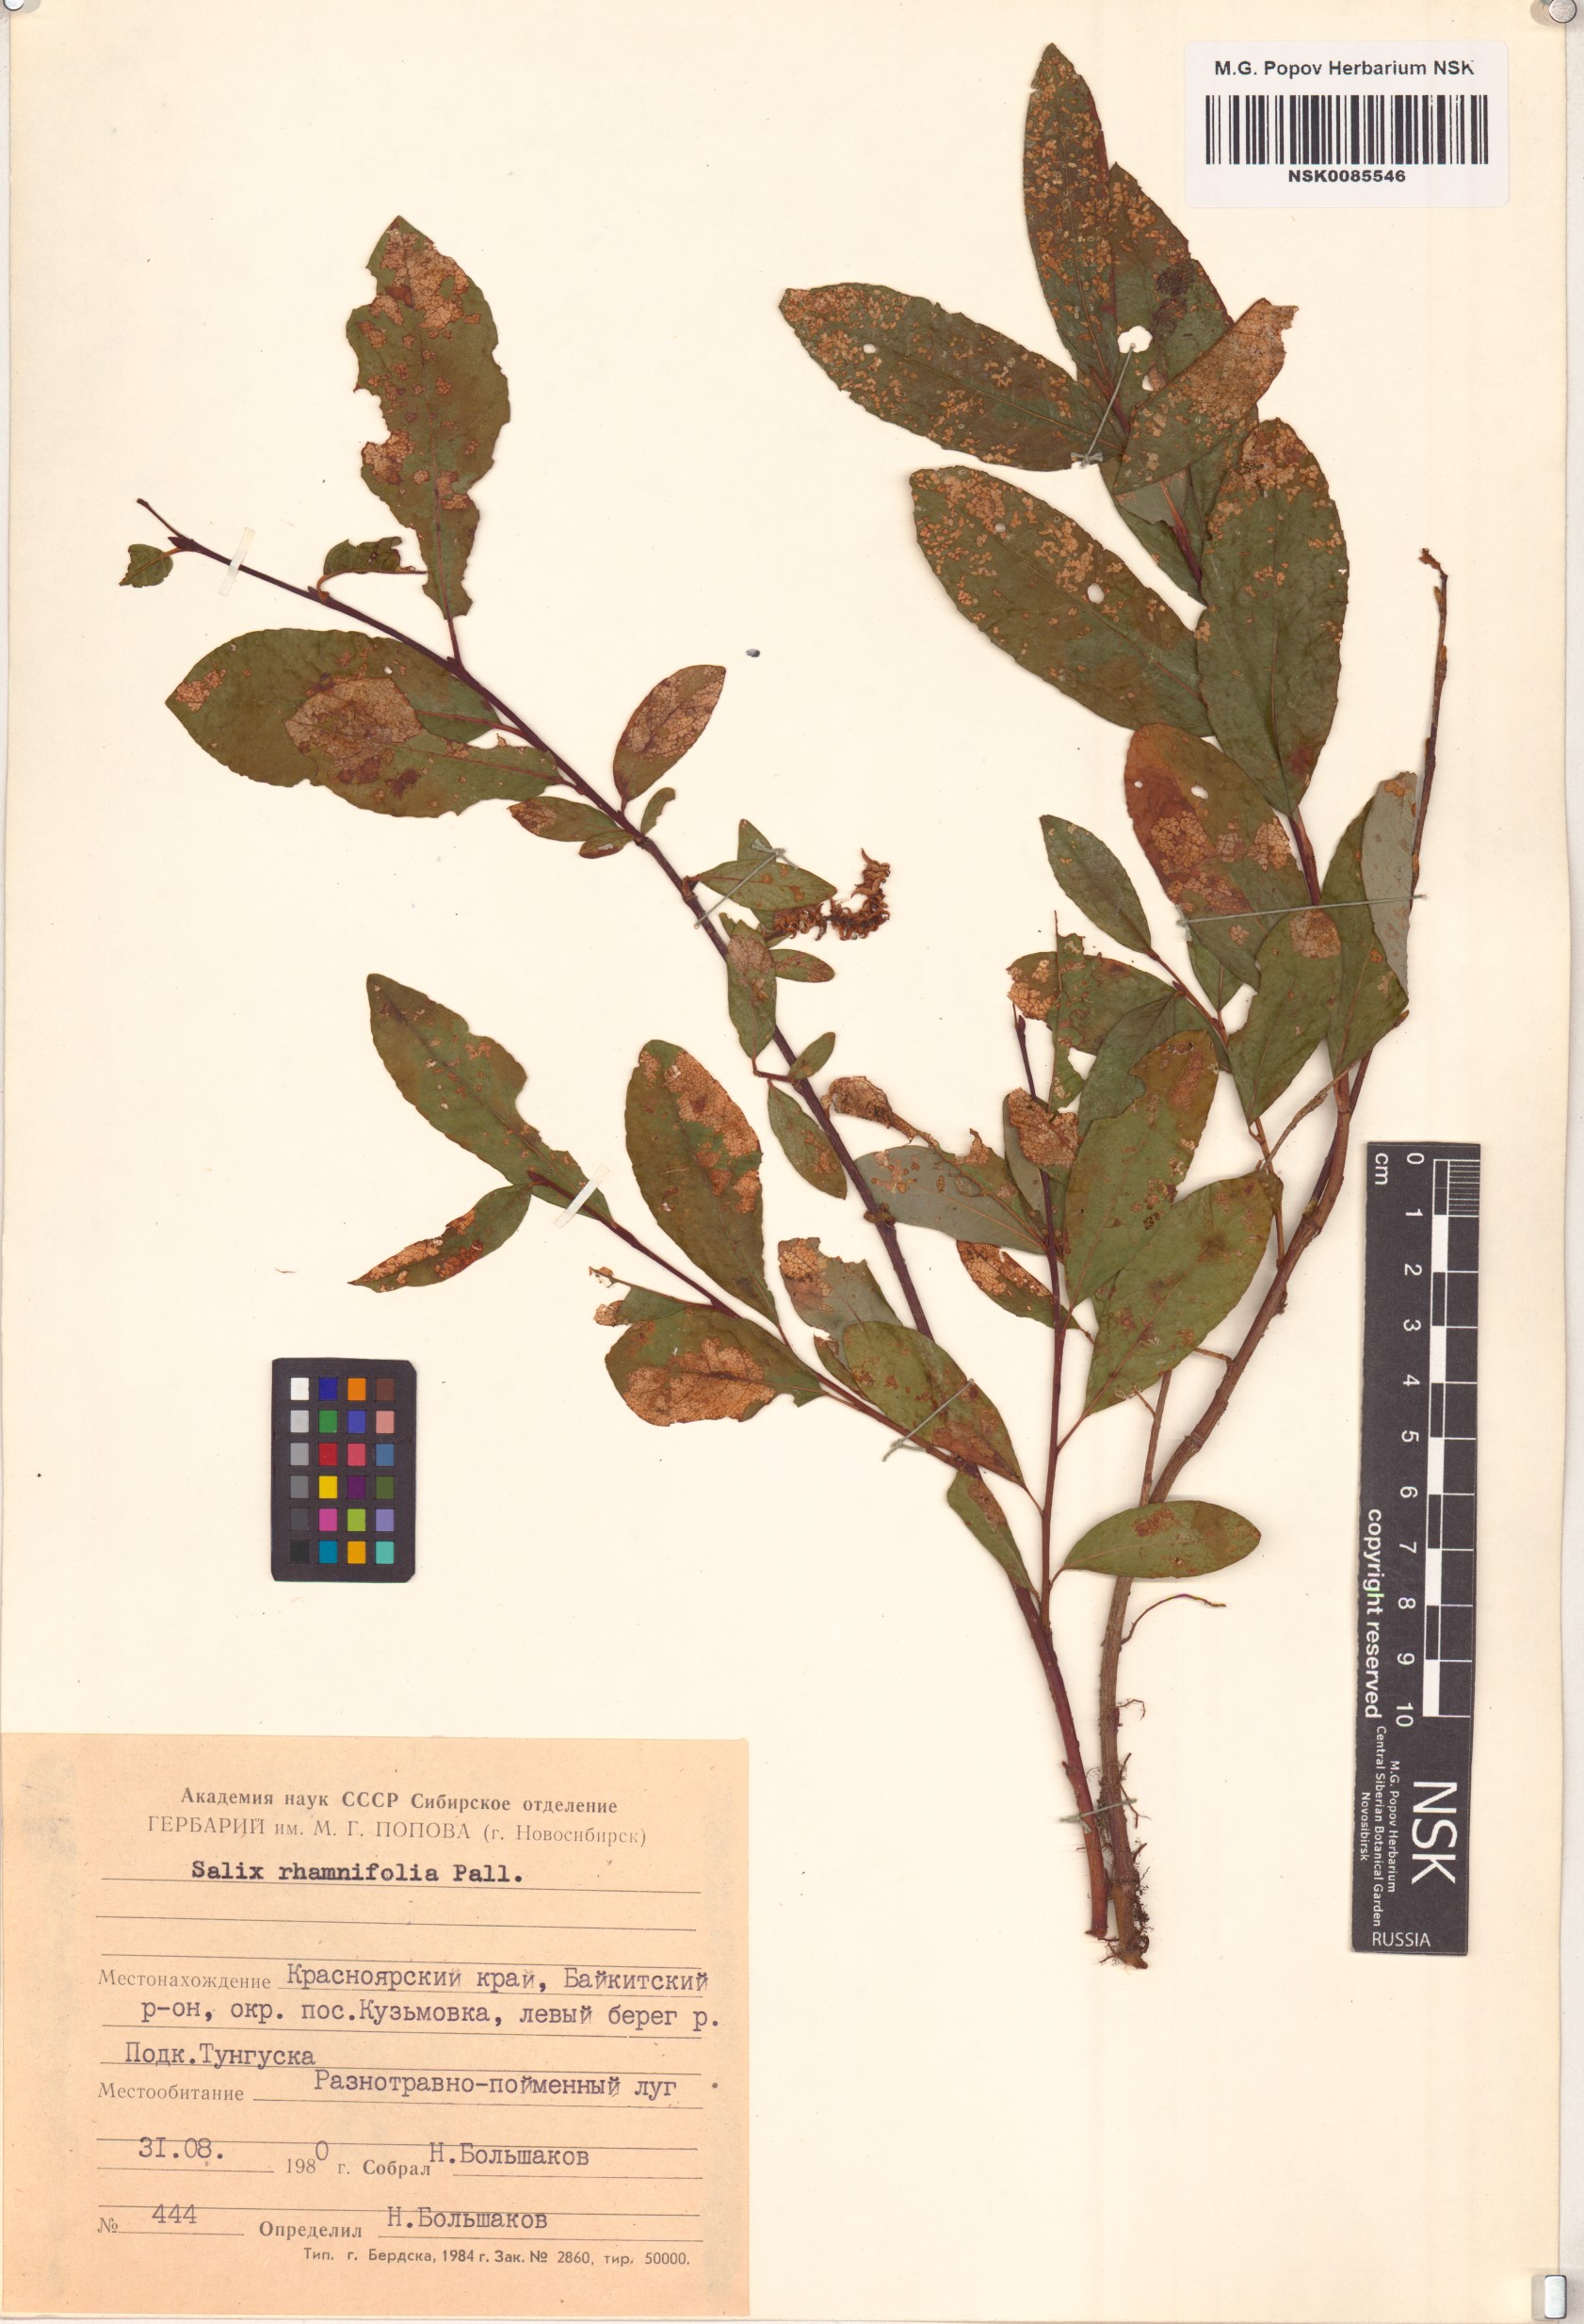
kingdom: Plantae
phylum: Tracheophyta
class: Magnoliopsida
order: Malpighiales
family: Salicaceae
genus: Salix
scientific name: Salix rhamnifolia
